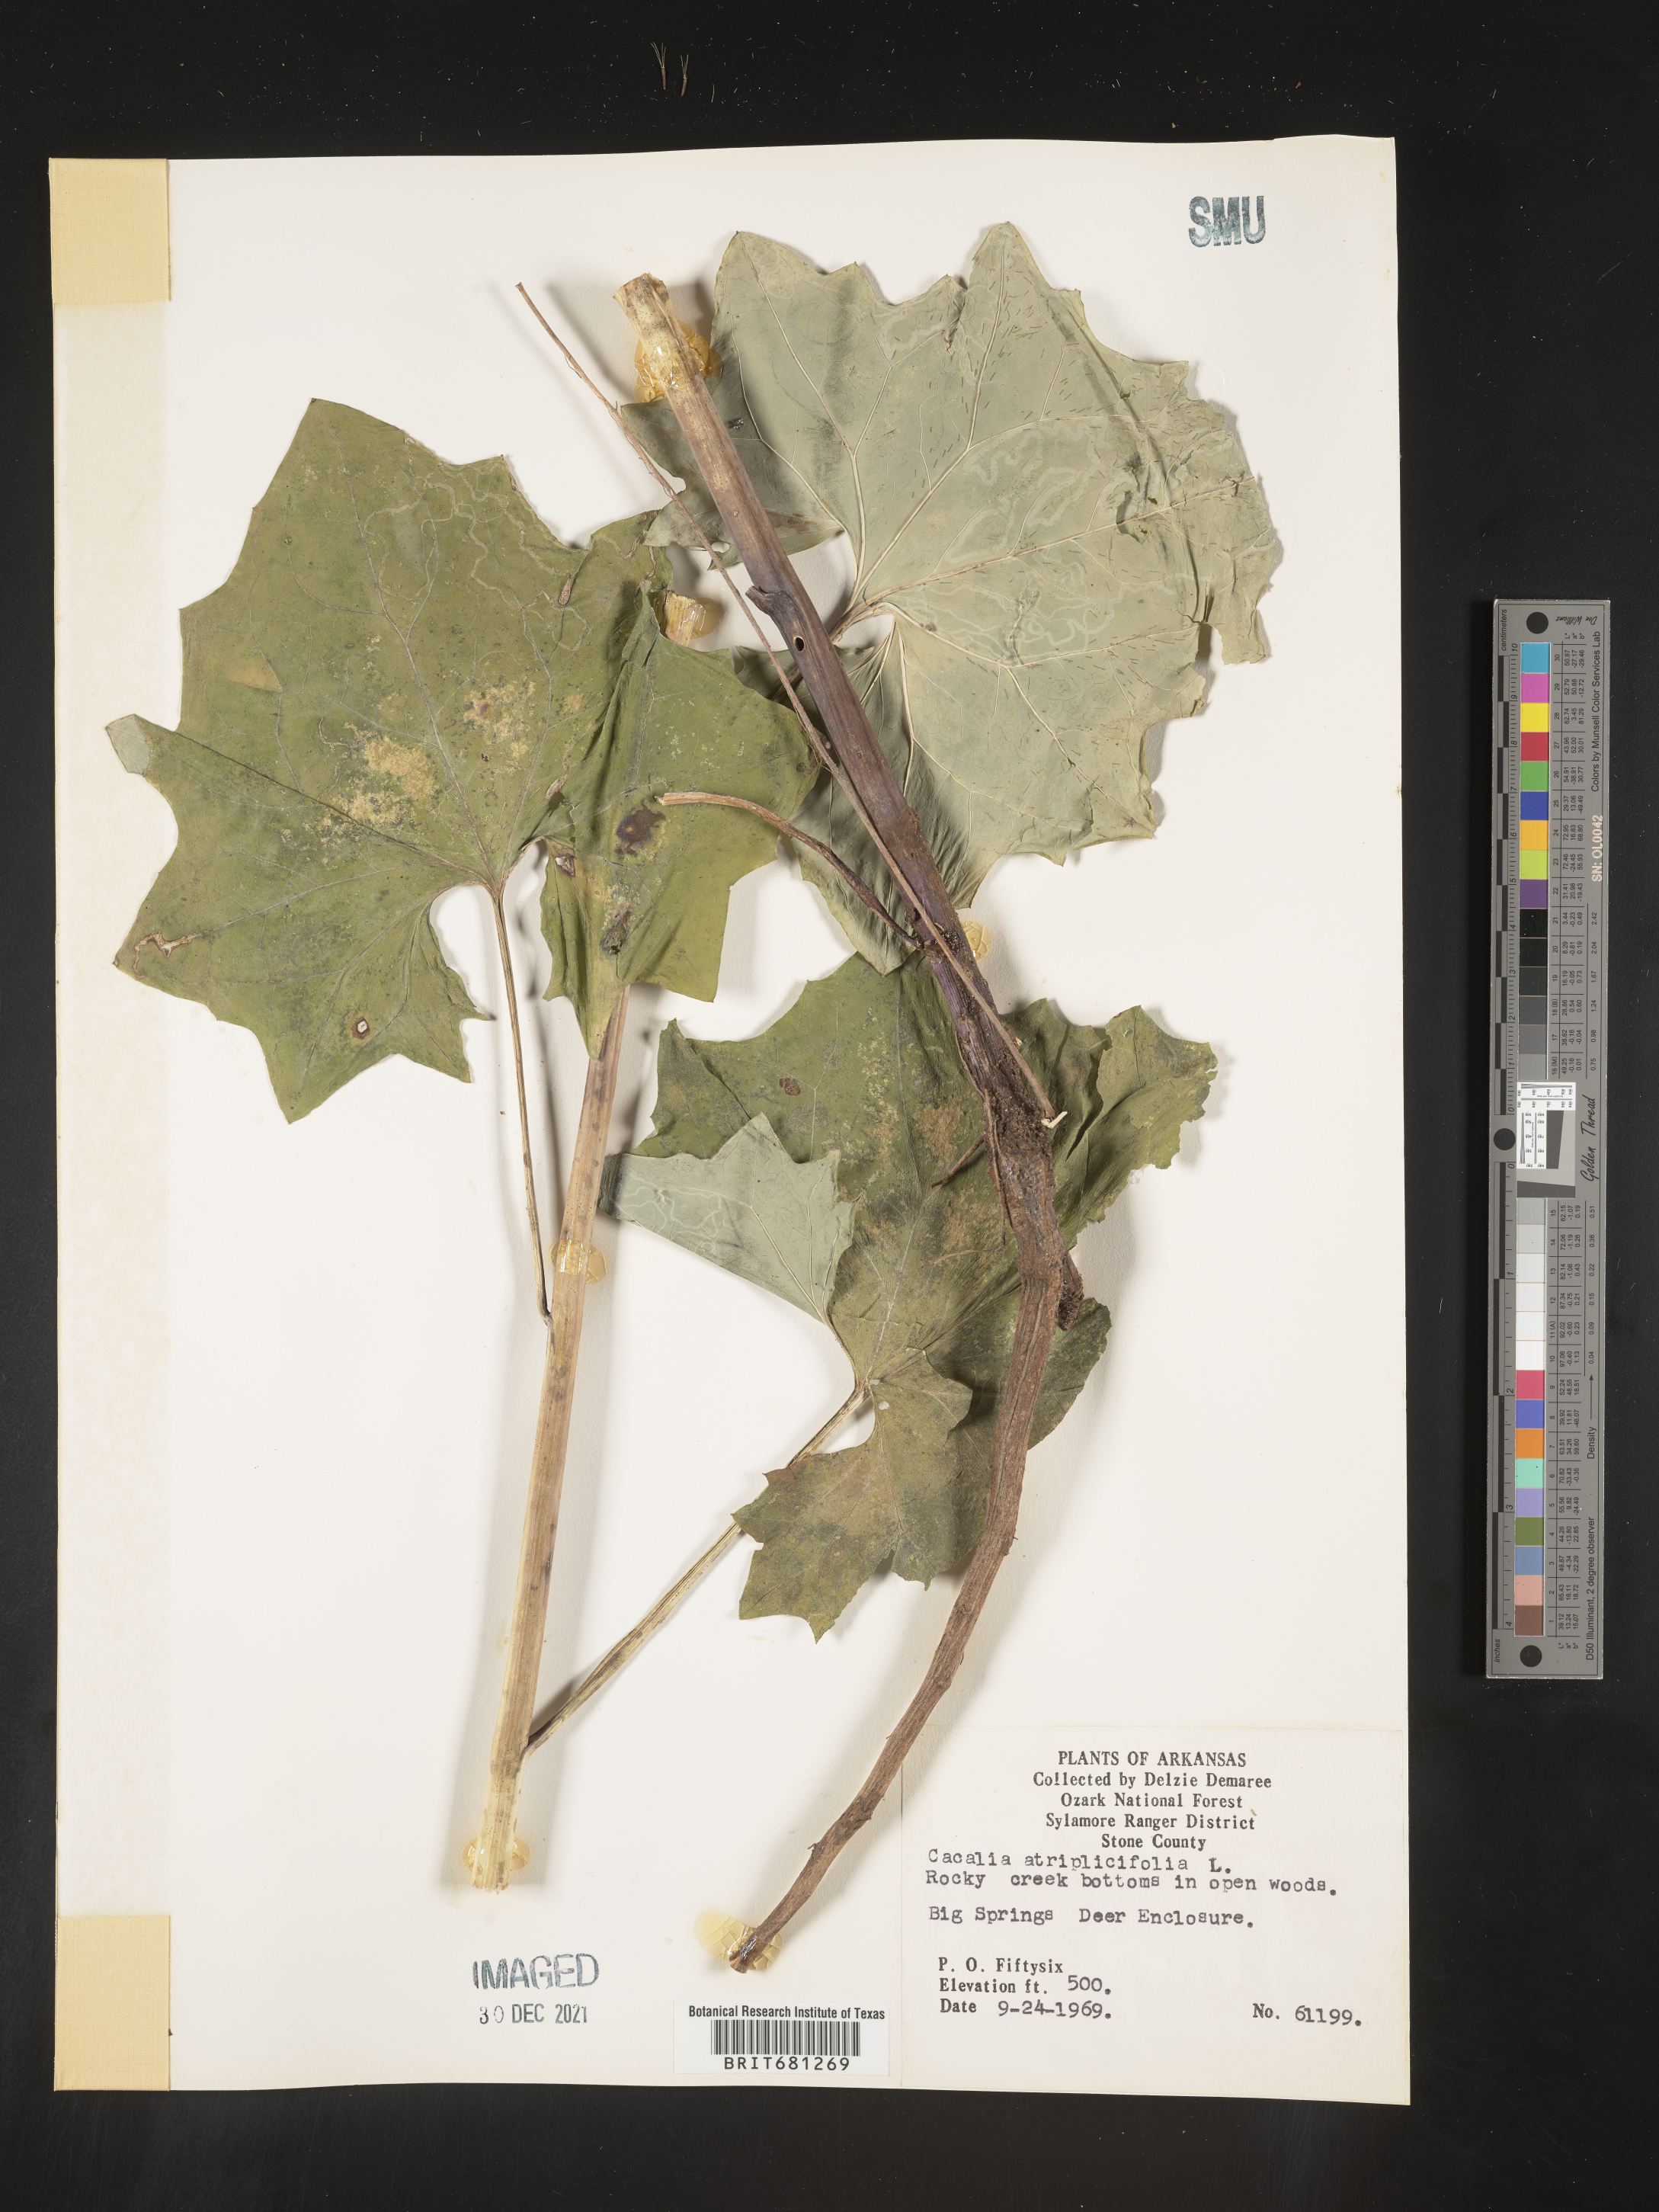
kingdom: Plantae
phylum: Tracheophyta
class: Magnoliopsida
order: Asterales
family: Asteraceae
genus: Arnoglossum
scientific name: Arnoglossum atriplicifolium
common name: Pale indian-plantain
